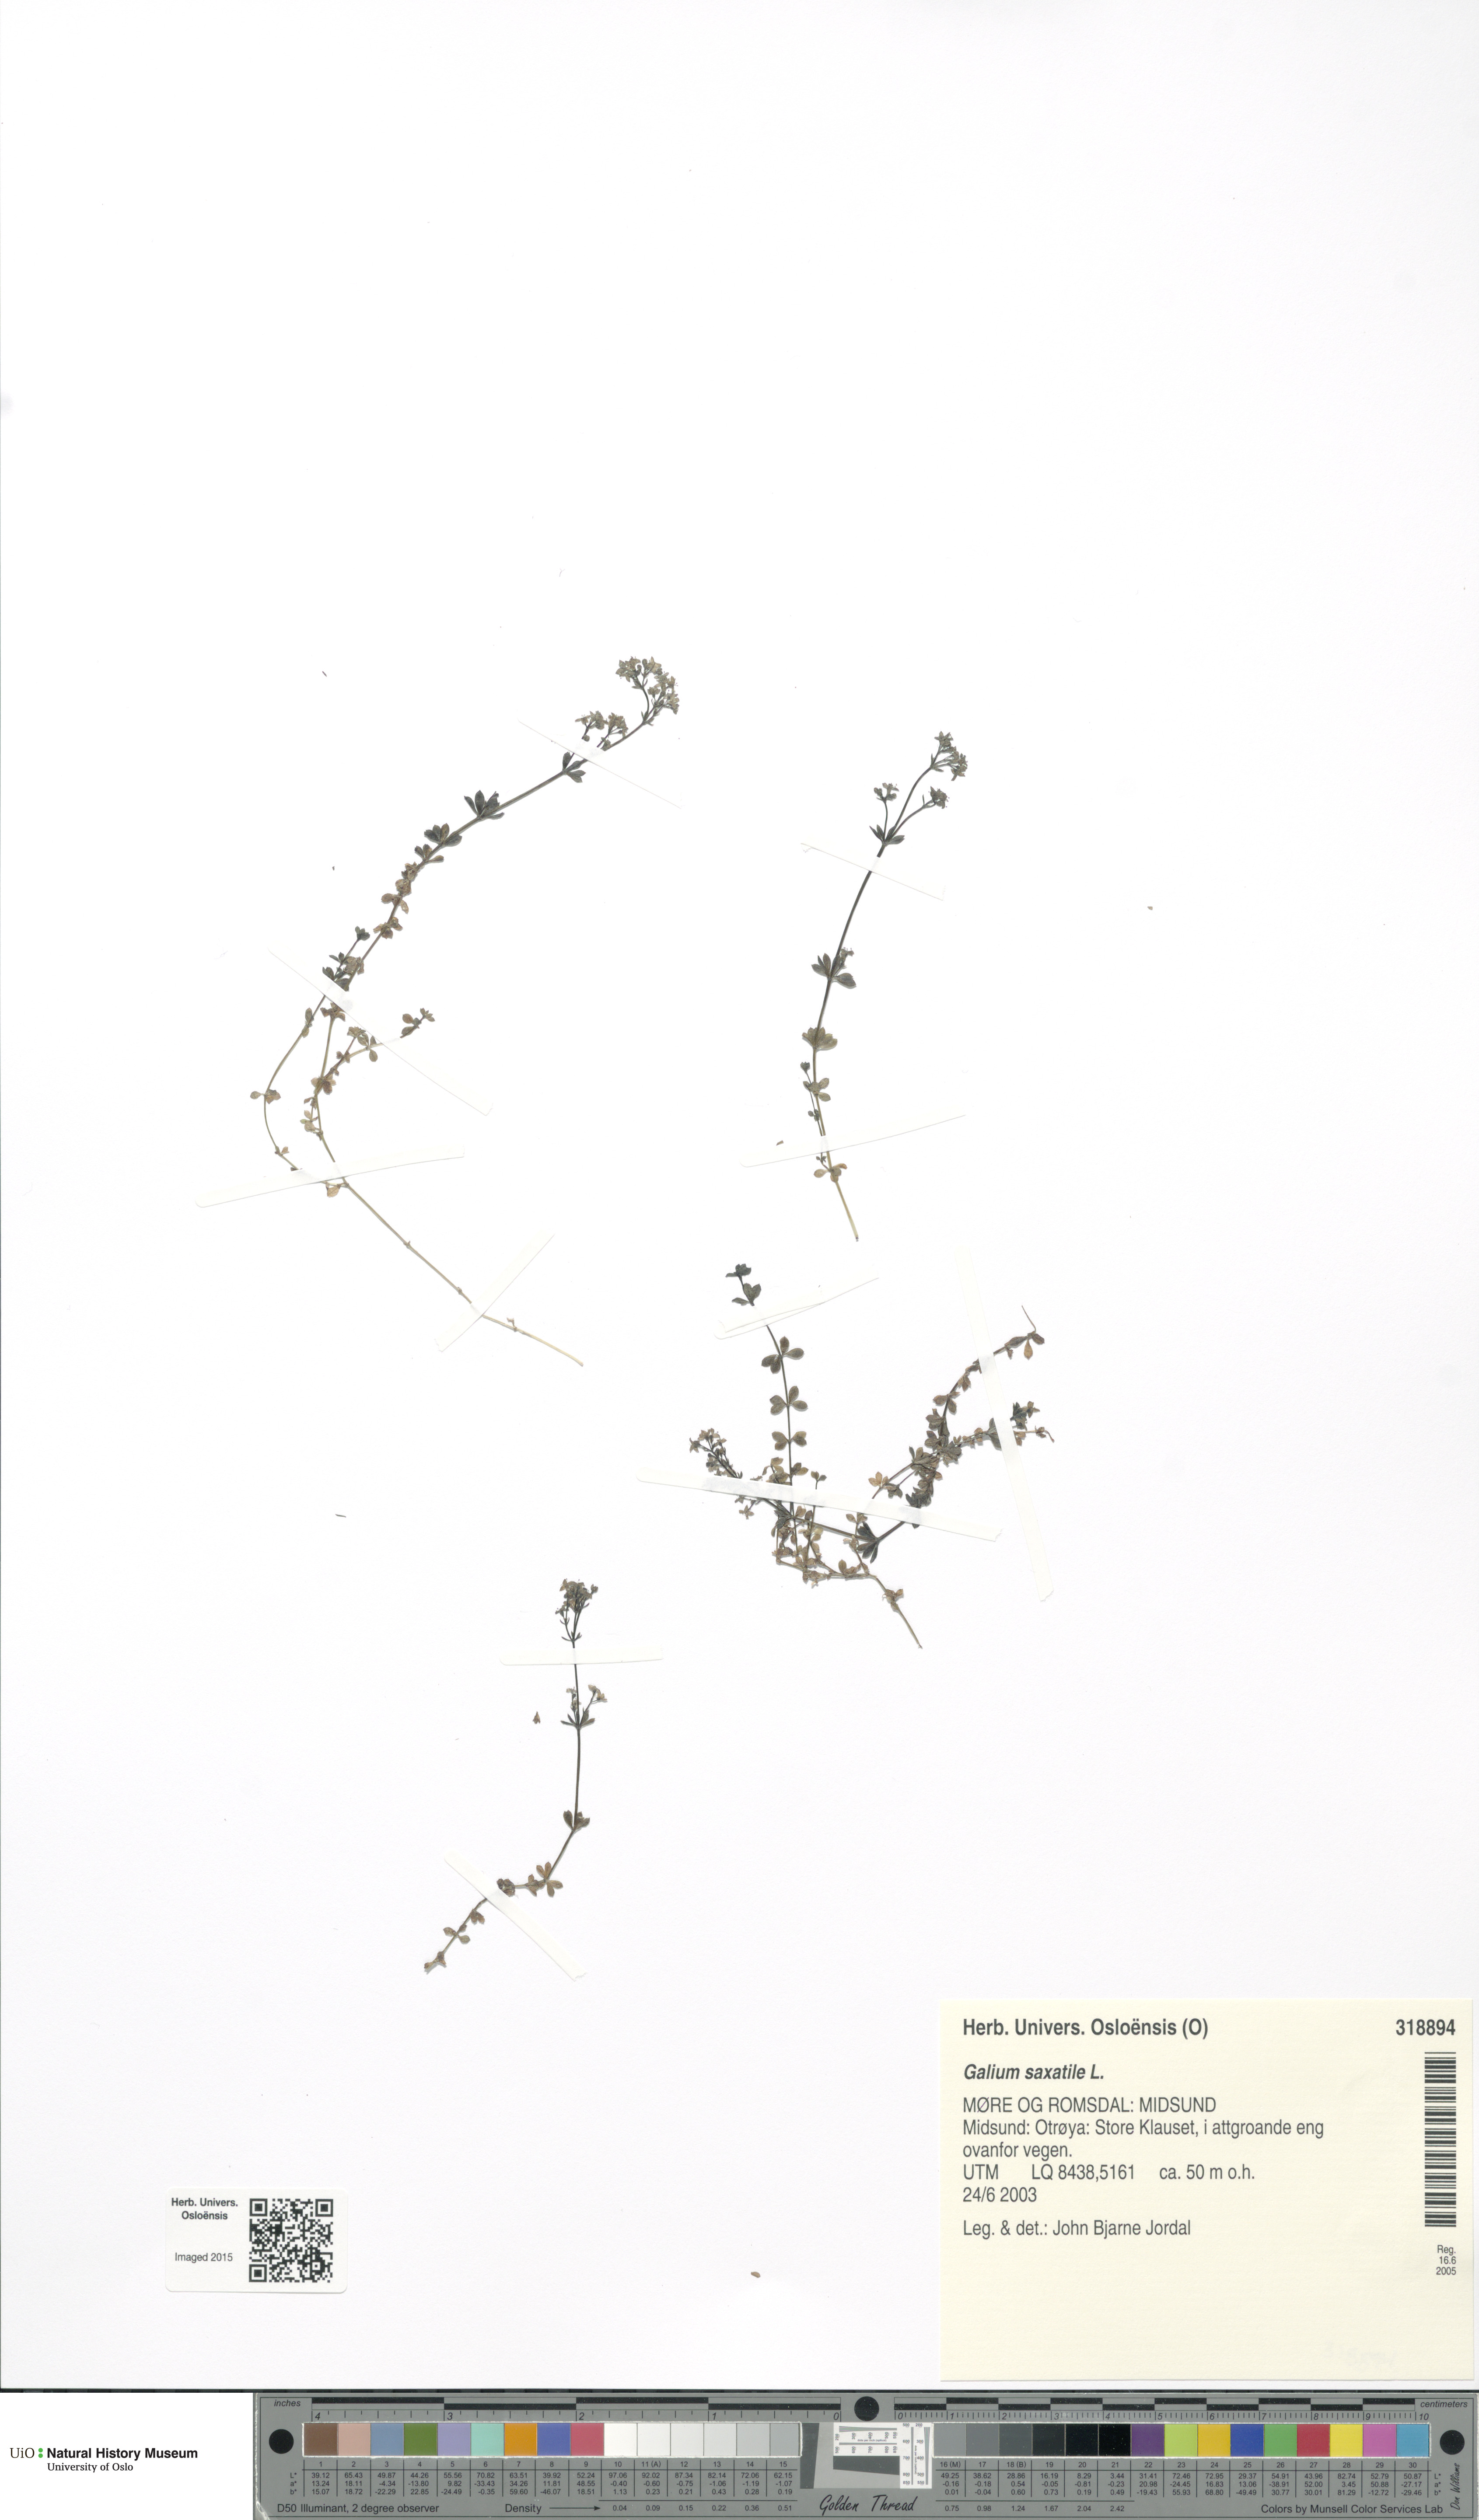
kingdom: Plantae
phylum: Tracheophyta
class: Magnoliopsida
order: Gentianales
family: Rubiaceae
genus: Galium
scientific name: Galium saxatile
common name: Heath bedstraw
